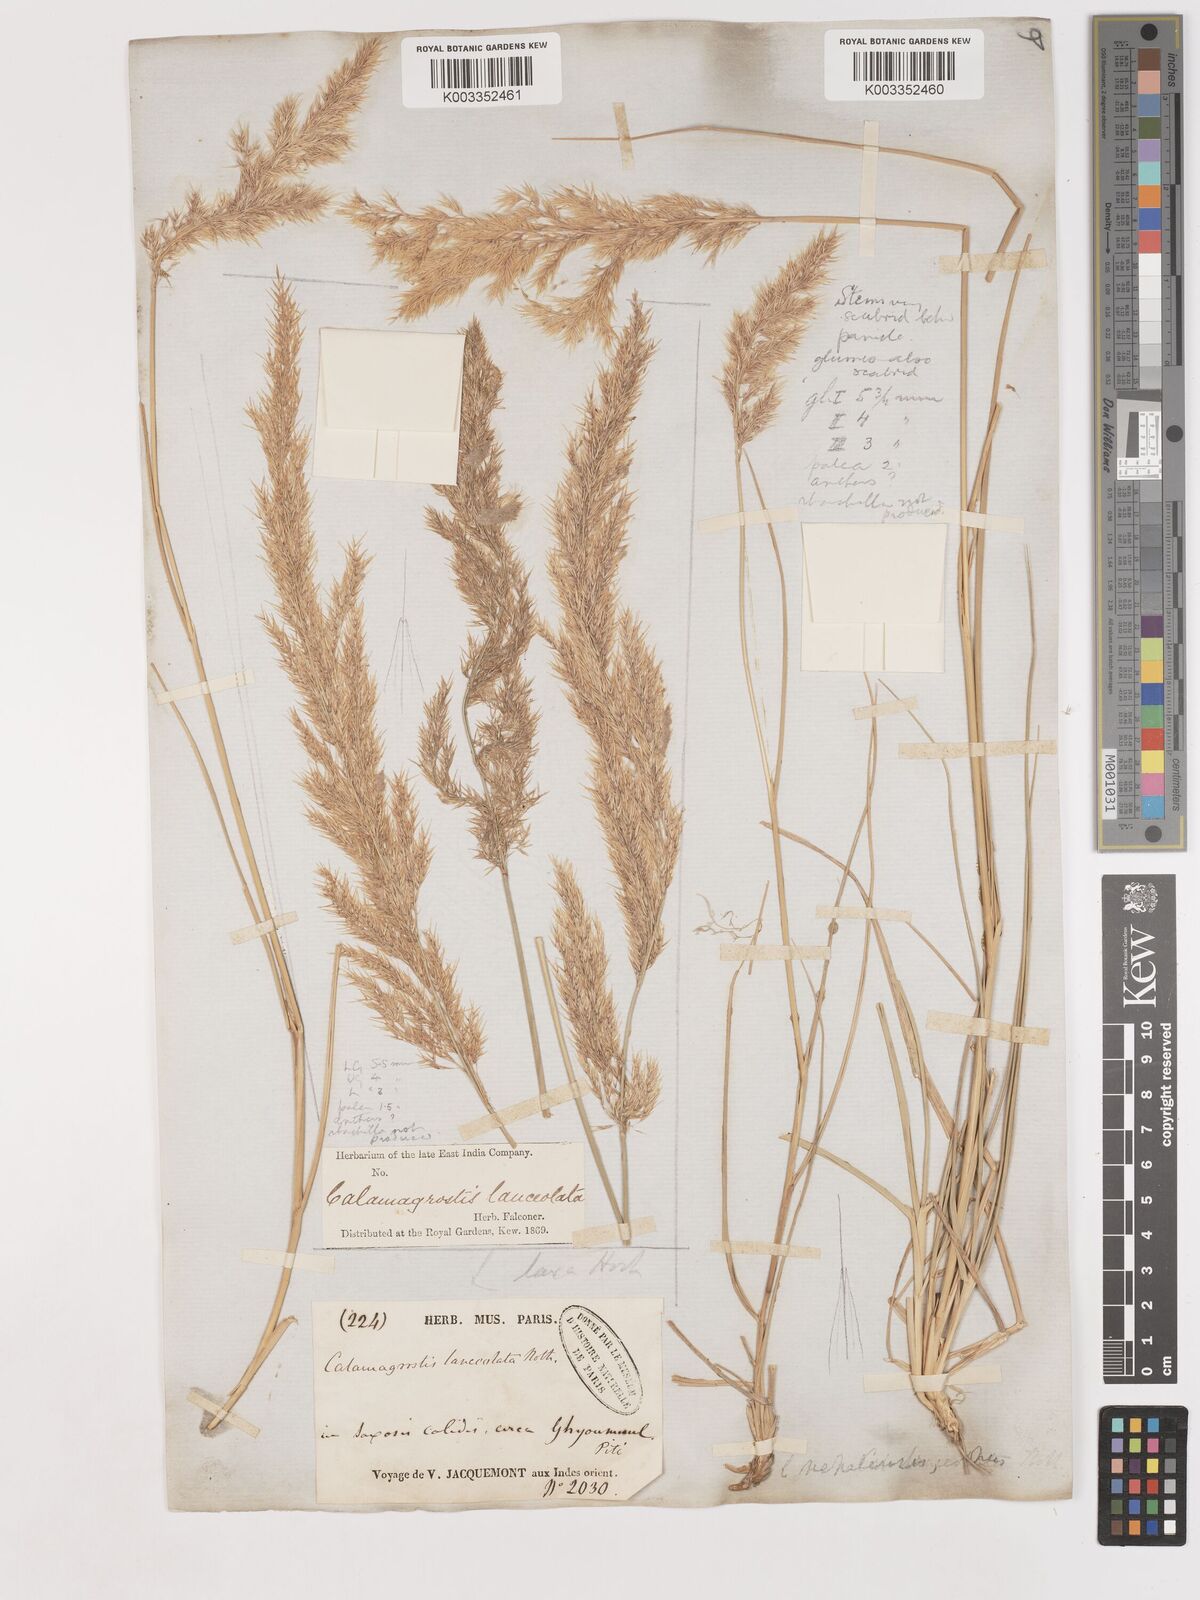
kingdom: Plantae
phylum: Tracheophyta
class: Liliopsida
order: Poales
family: Poaceae
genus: Calamagrostis
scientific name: Calamagrostis pseudophragmites
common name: Coastal small-reed
